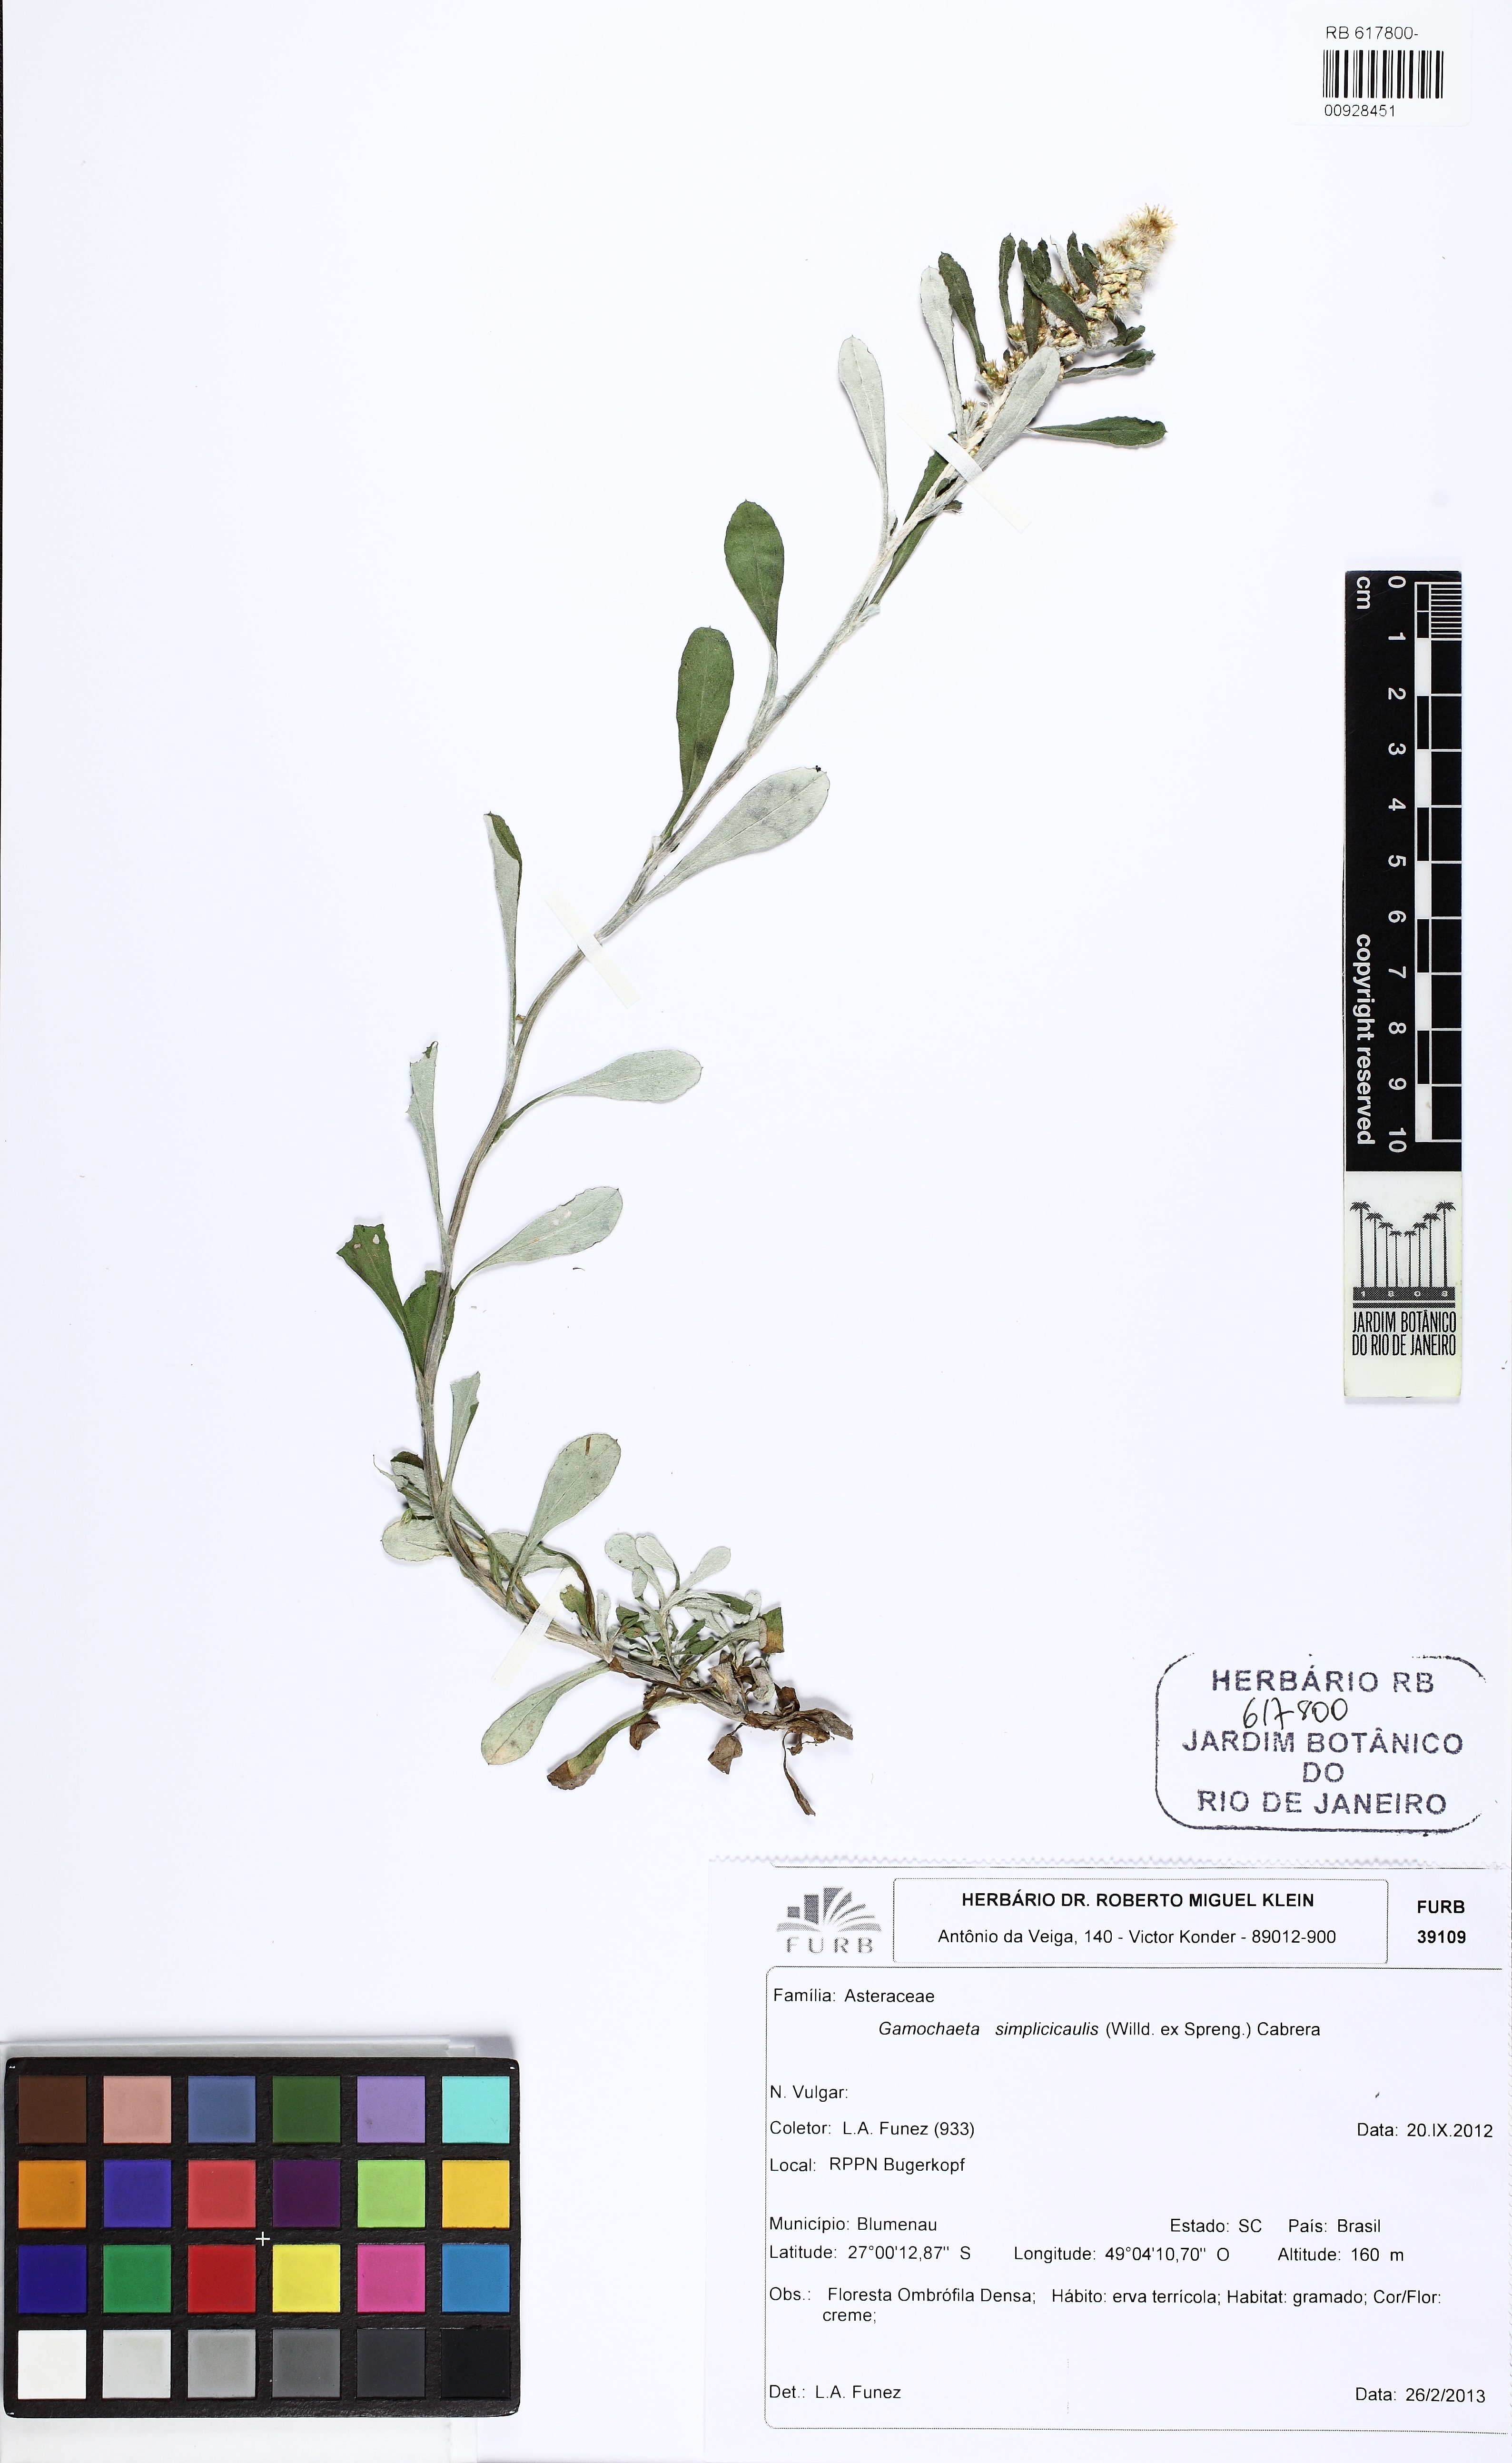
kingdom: Plantae
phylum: Tracheophyta
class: Magnoliopsida
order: Asterales
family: Asteraceae
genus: Gamochaeta
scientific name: Gamochaeta simplicicaulis
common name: Simple-stem everlasting
